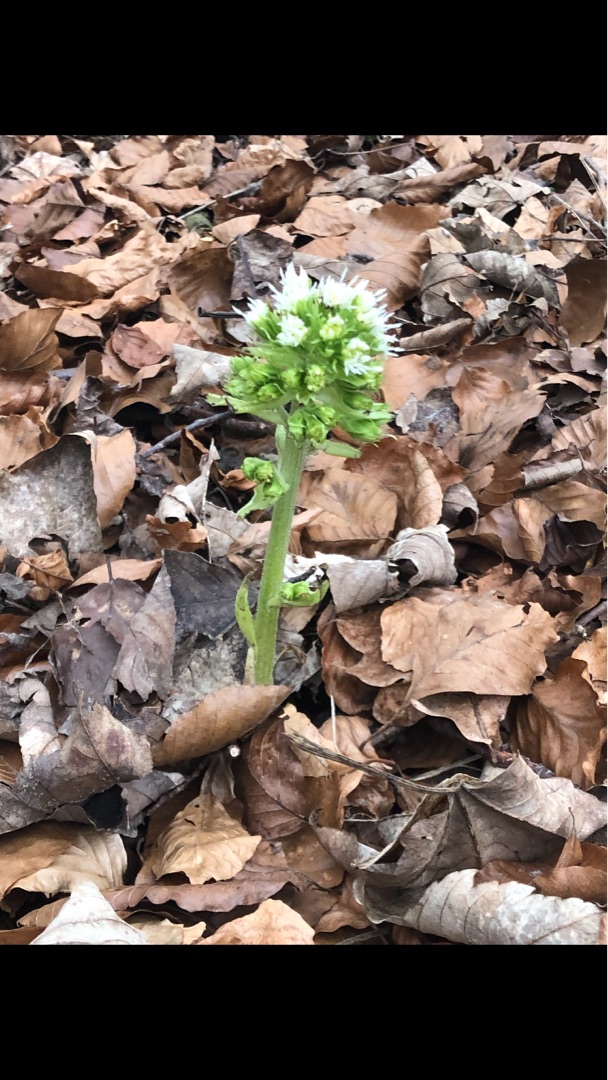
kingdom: Plantae
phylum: Tracheophyta
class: Magnoliopsida
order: Asterales
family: Asteraceae
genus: Petasites
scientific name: Petasites albus
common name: Hvid hestehov
